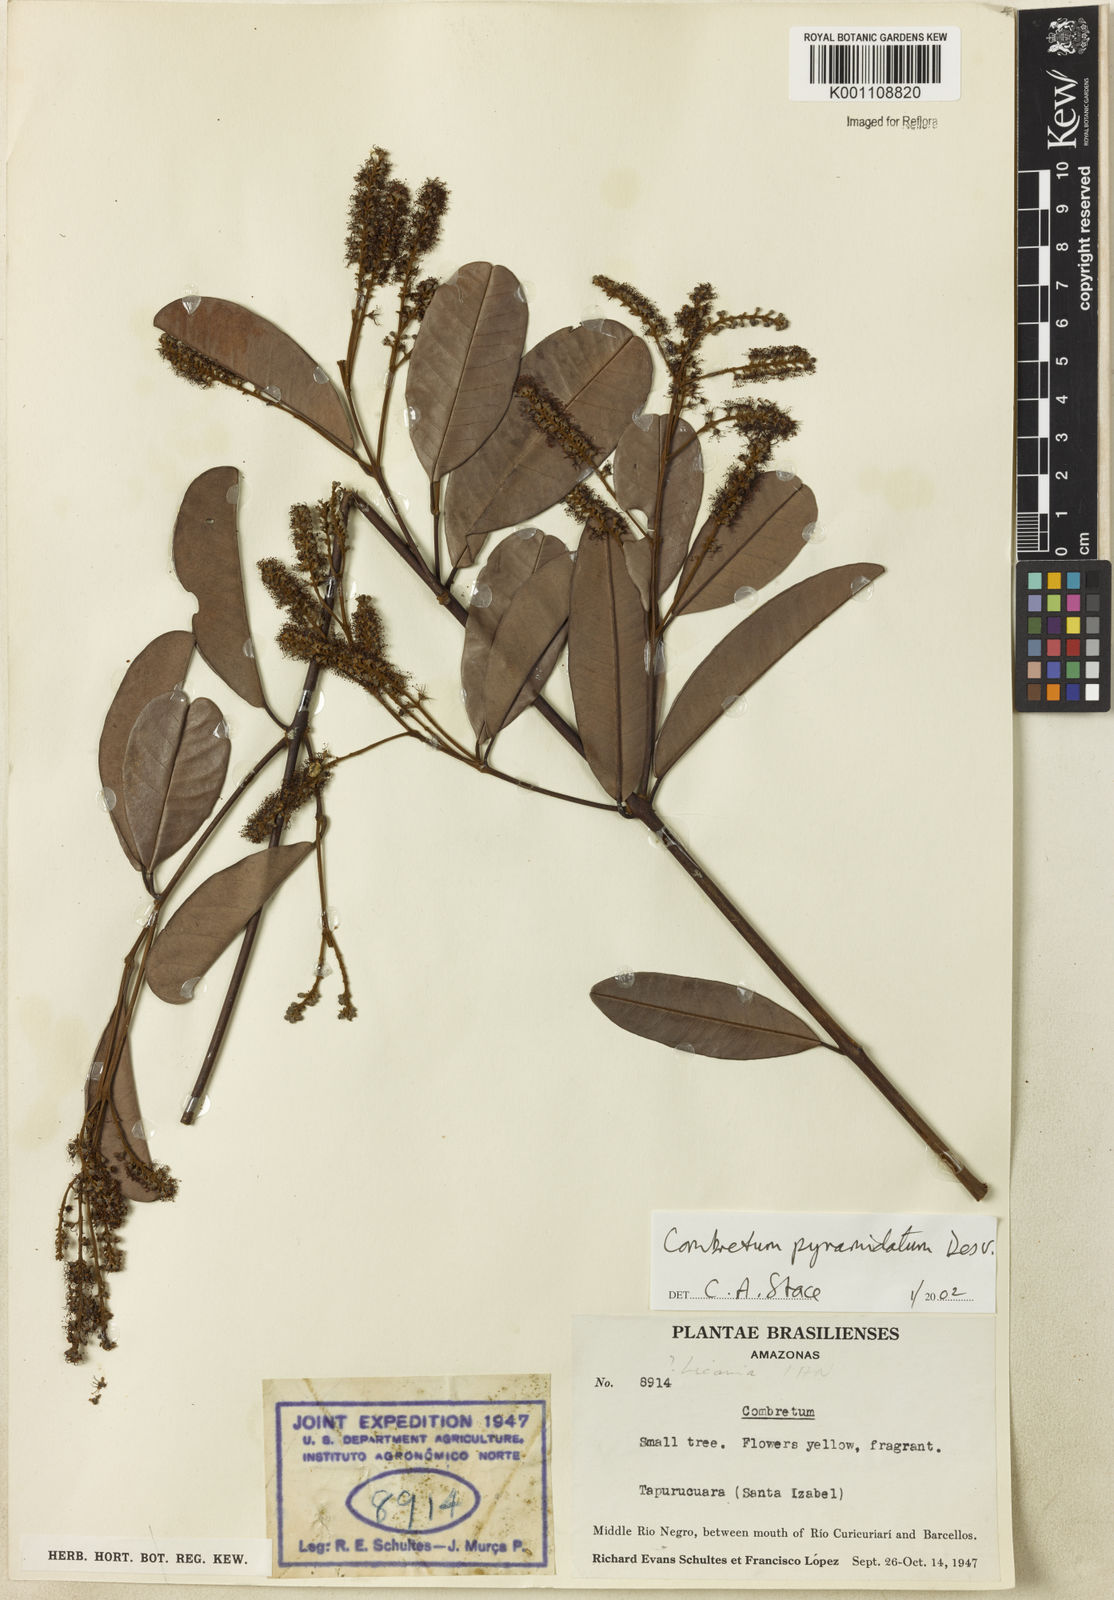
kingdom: Plantae
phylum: Tracheophyta
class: Magnoliopsida
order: Myrtales
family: Combretaceae
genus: Combretum
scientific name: Combretum pyramidatum
